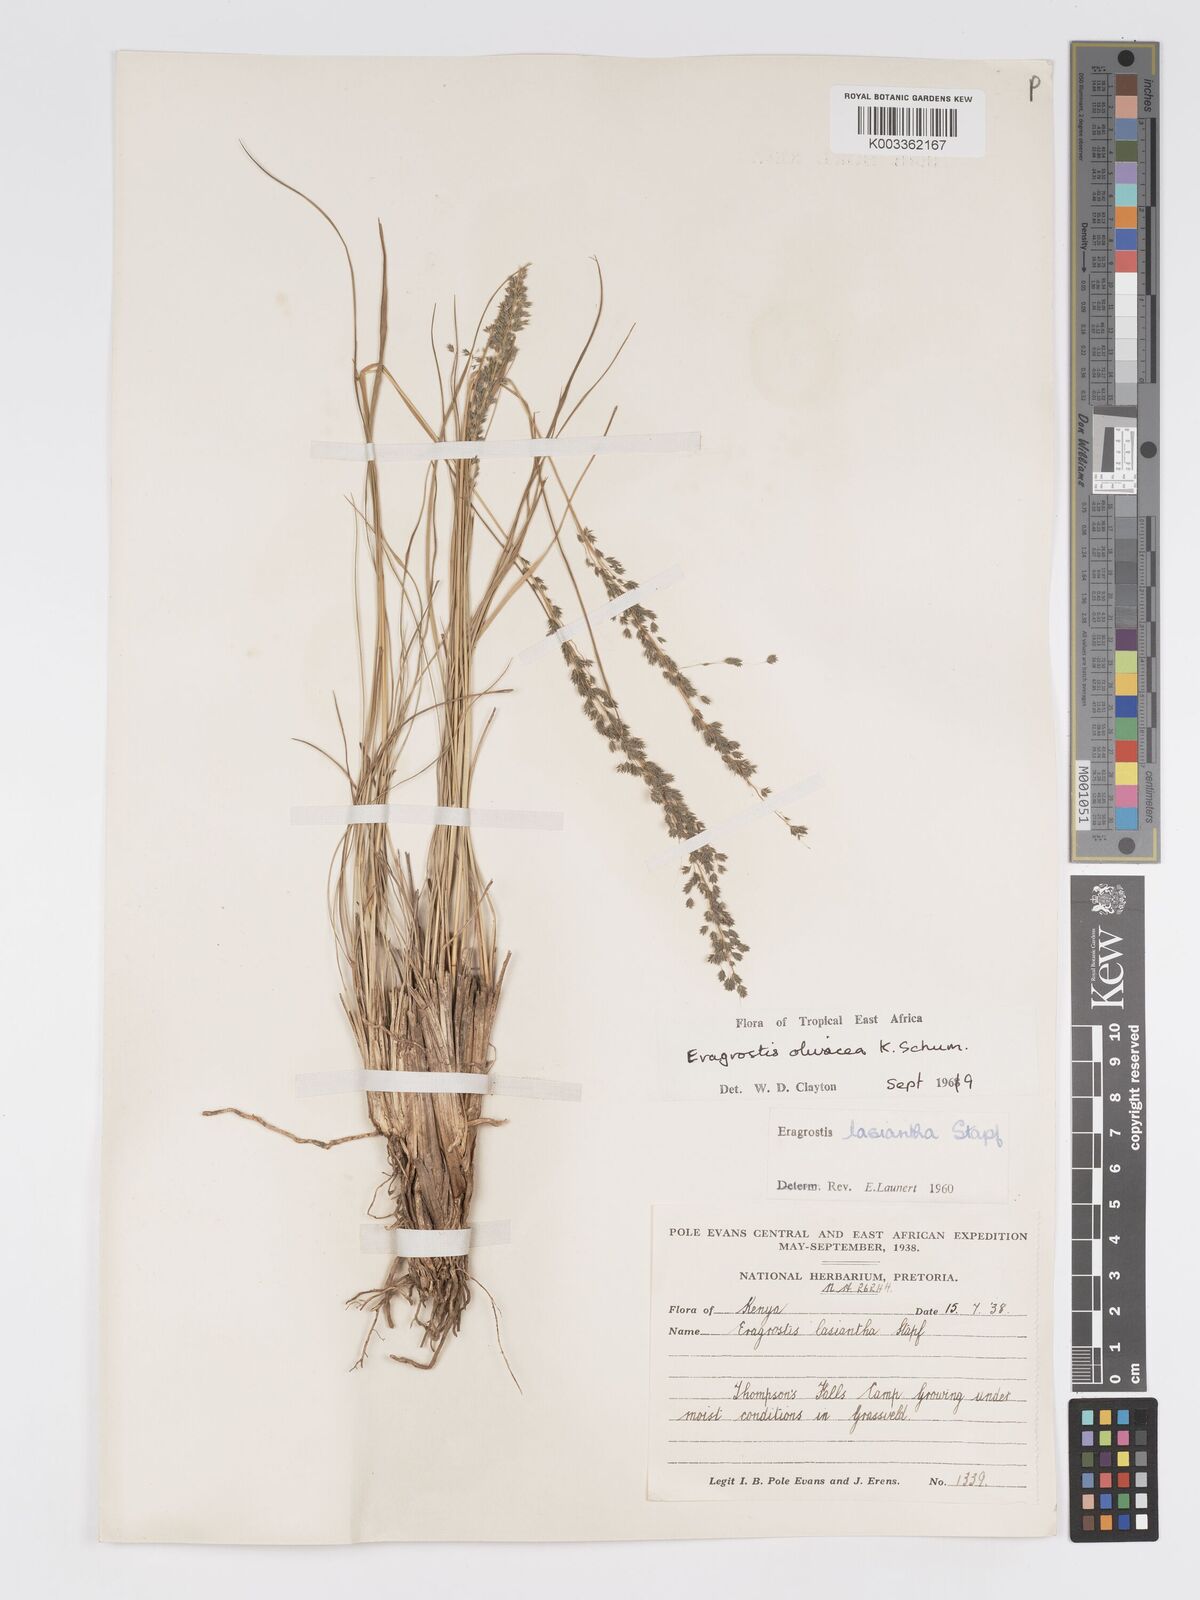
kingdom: Plantae
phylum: Tracheophyta
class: Liliopsida
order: Poales
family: Poaceae
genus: Eragrostis
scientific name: Eragrostis olivacea
